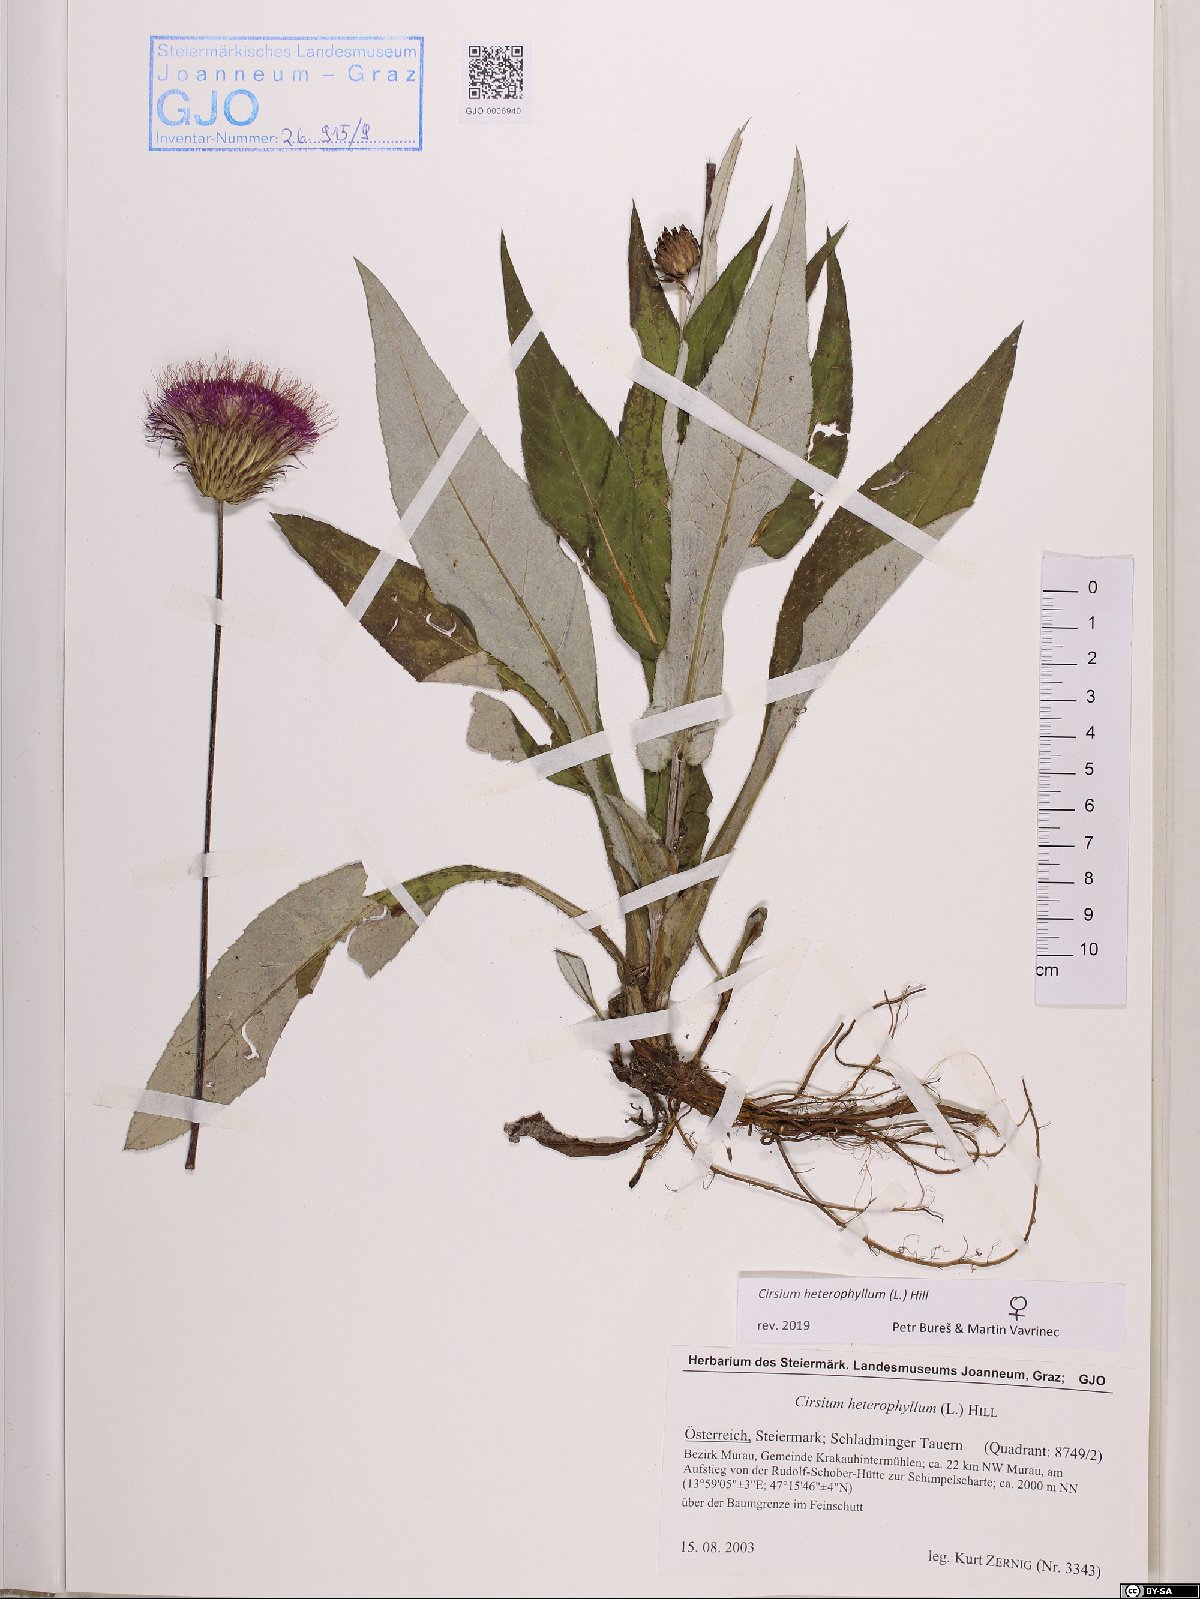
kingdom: Plantae
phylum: Tracheophyta
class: Magnoliopsida
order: Asterales
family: Asteraceae
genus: Cirsium
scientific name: Cirsium heterophyllum
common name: Melancholy thistle
